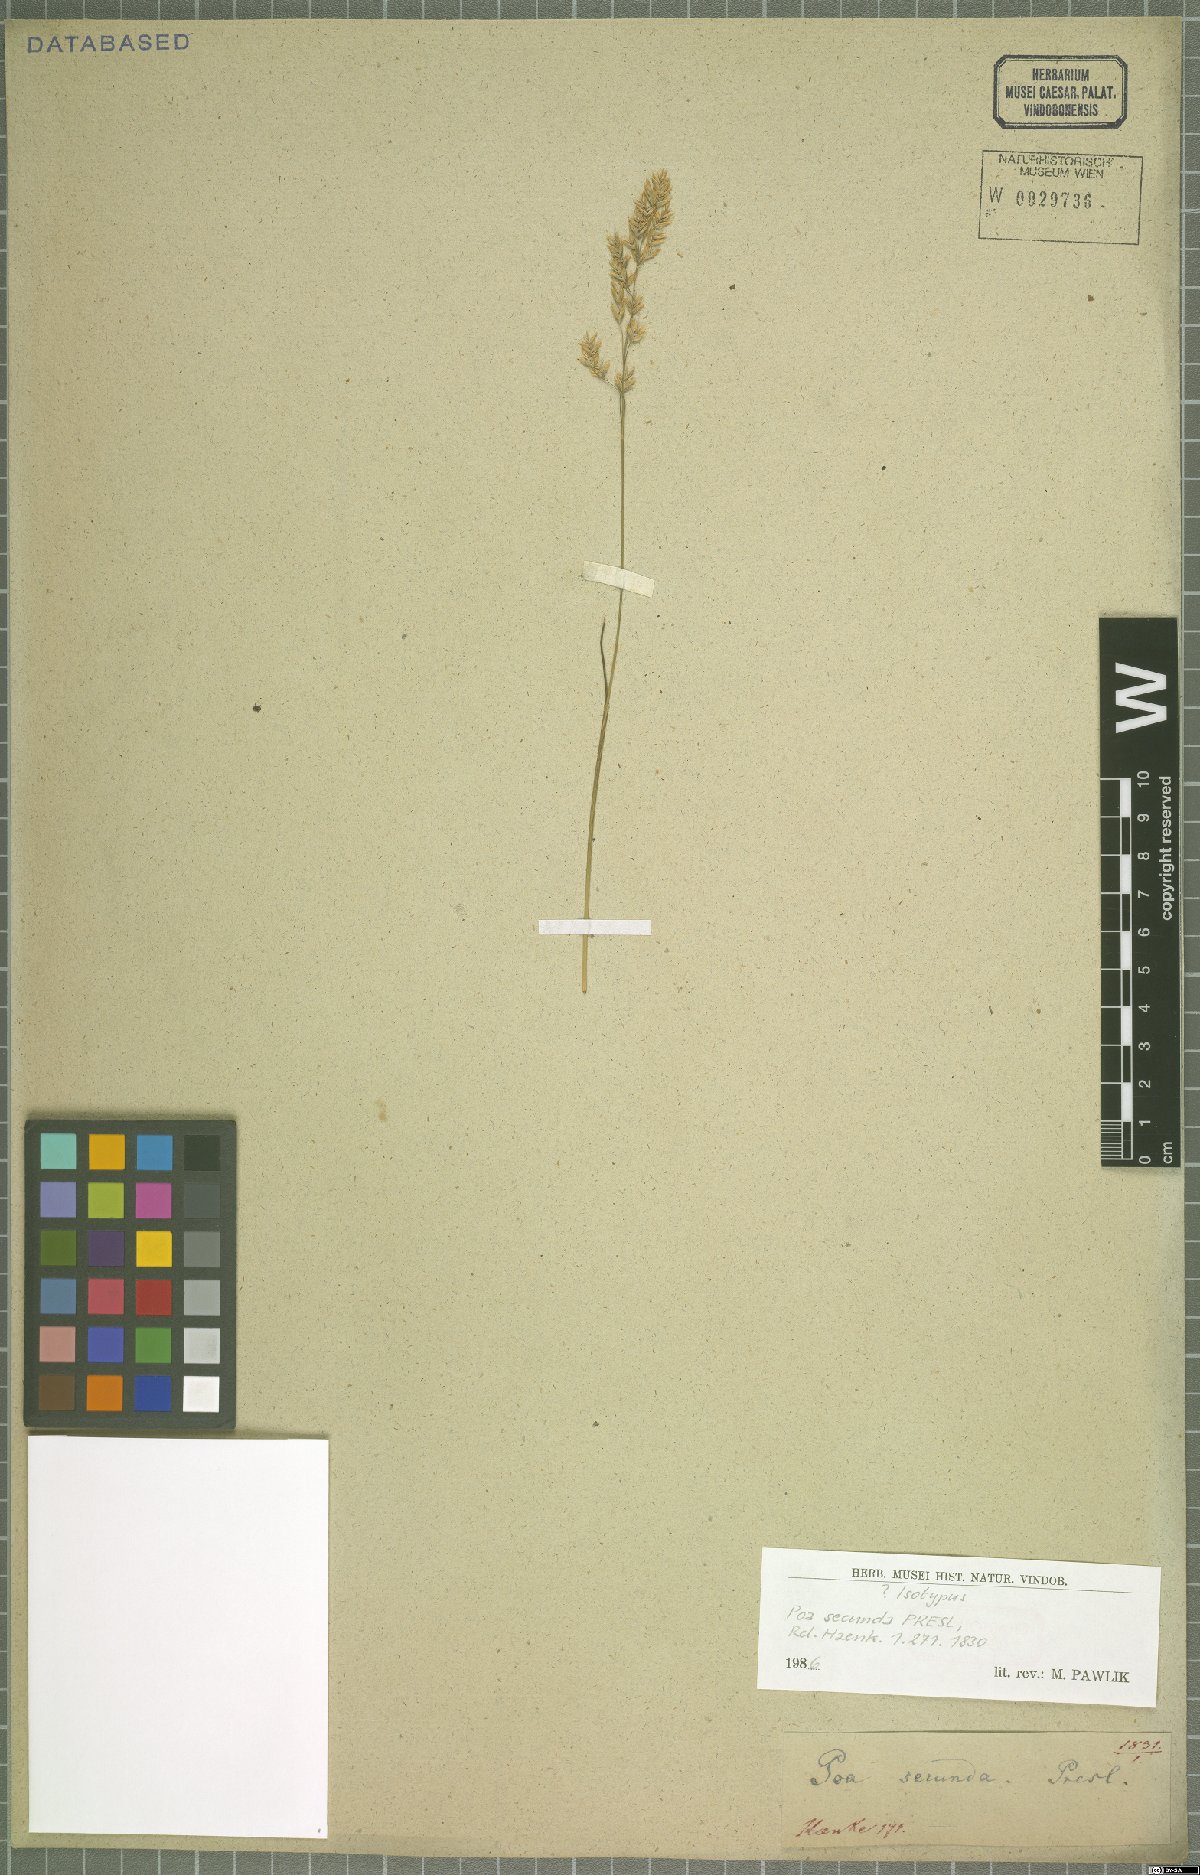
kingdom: Plantae
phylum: Tracheophyta
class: Liliopsida
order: Poales
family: Poaceae
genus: Poa
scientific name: Poa secunda
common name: Sandberg bluegrass
